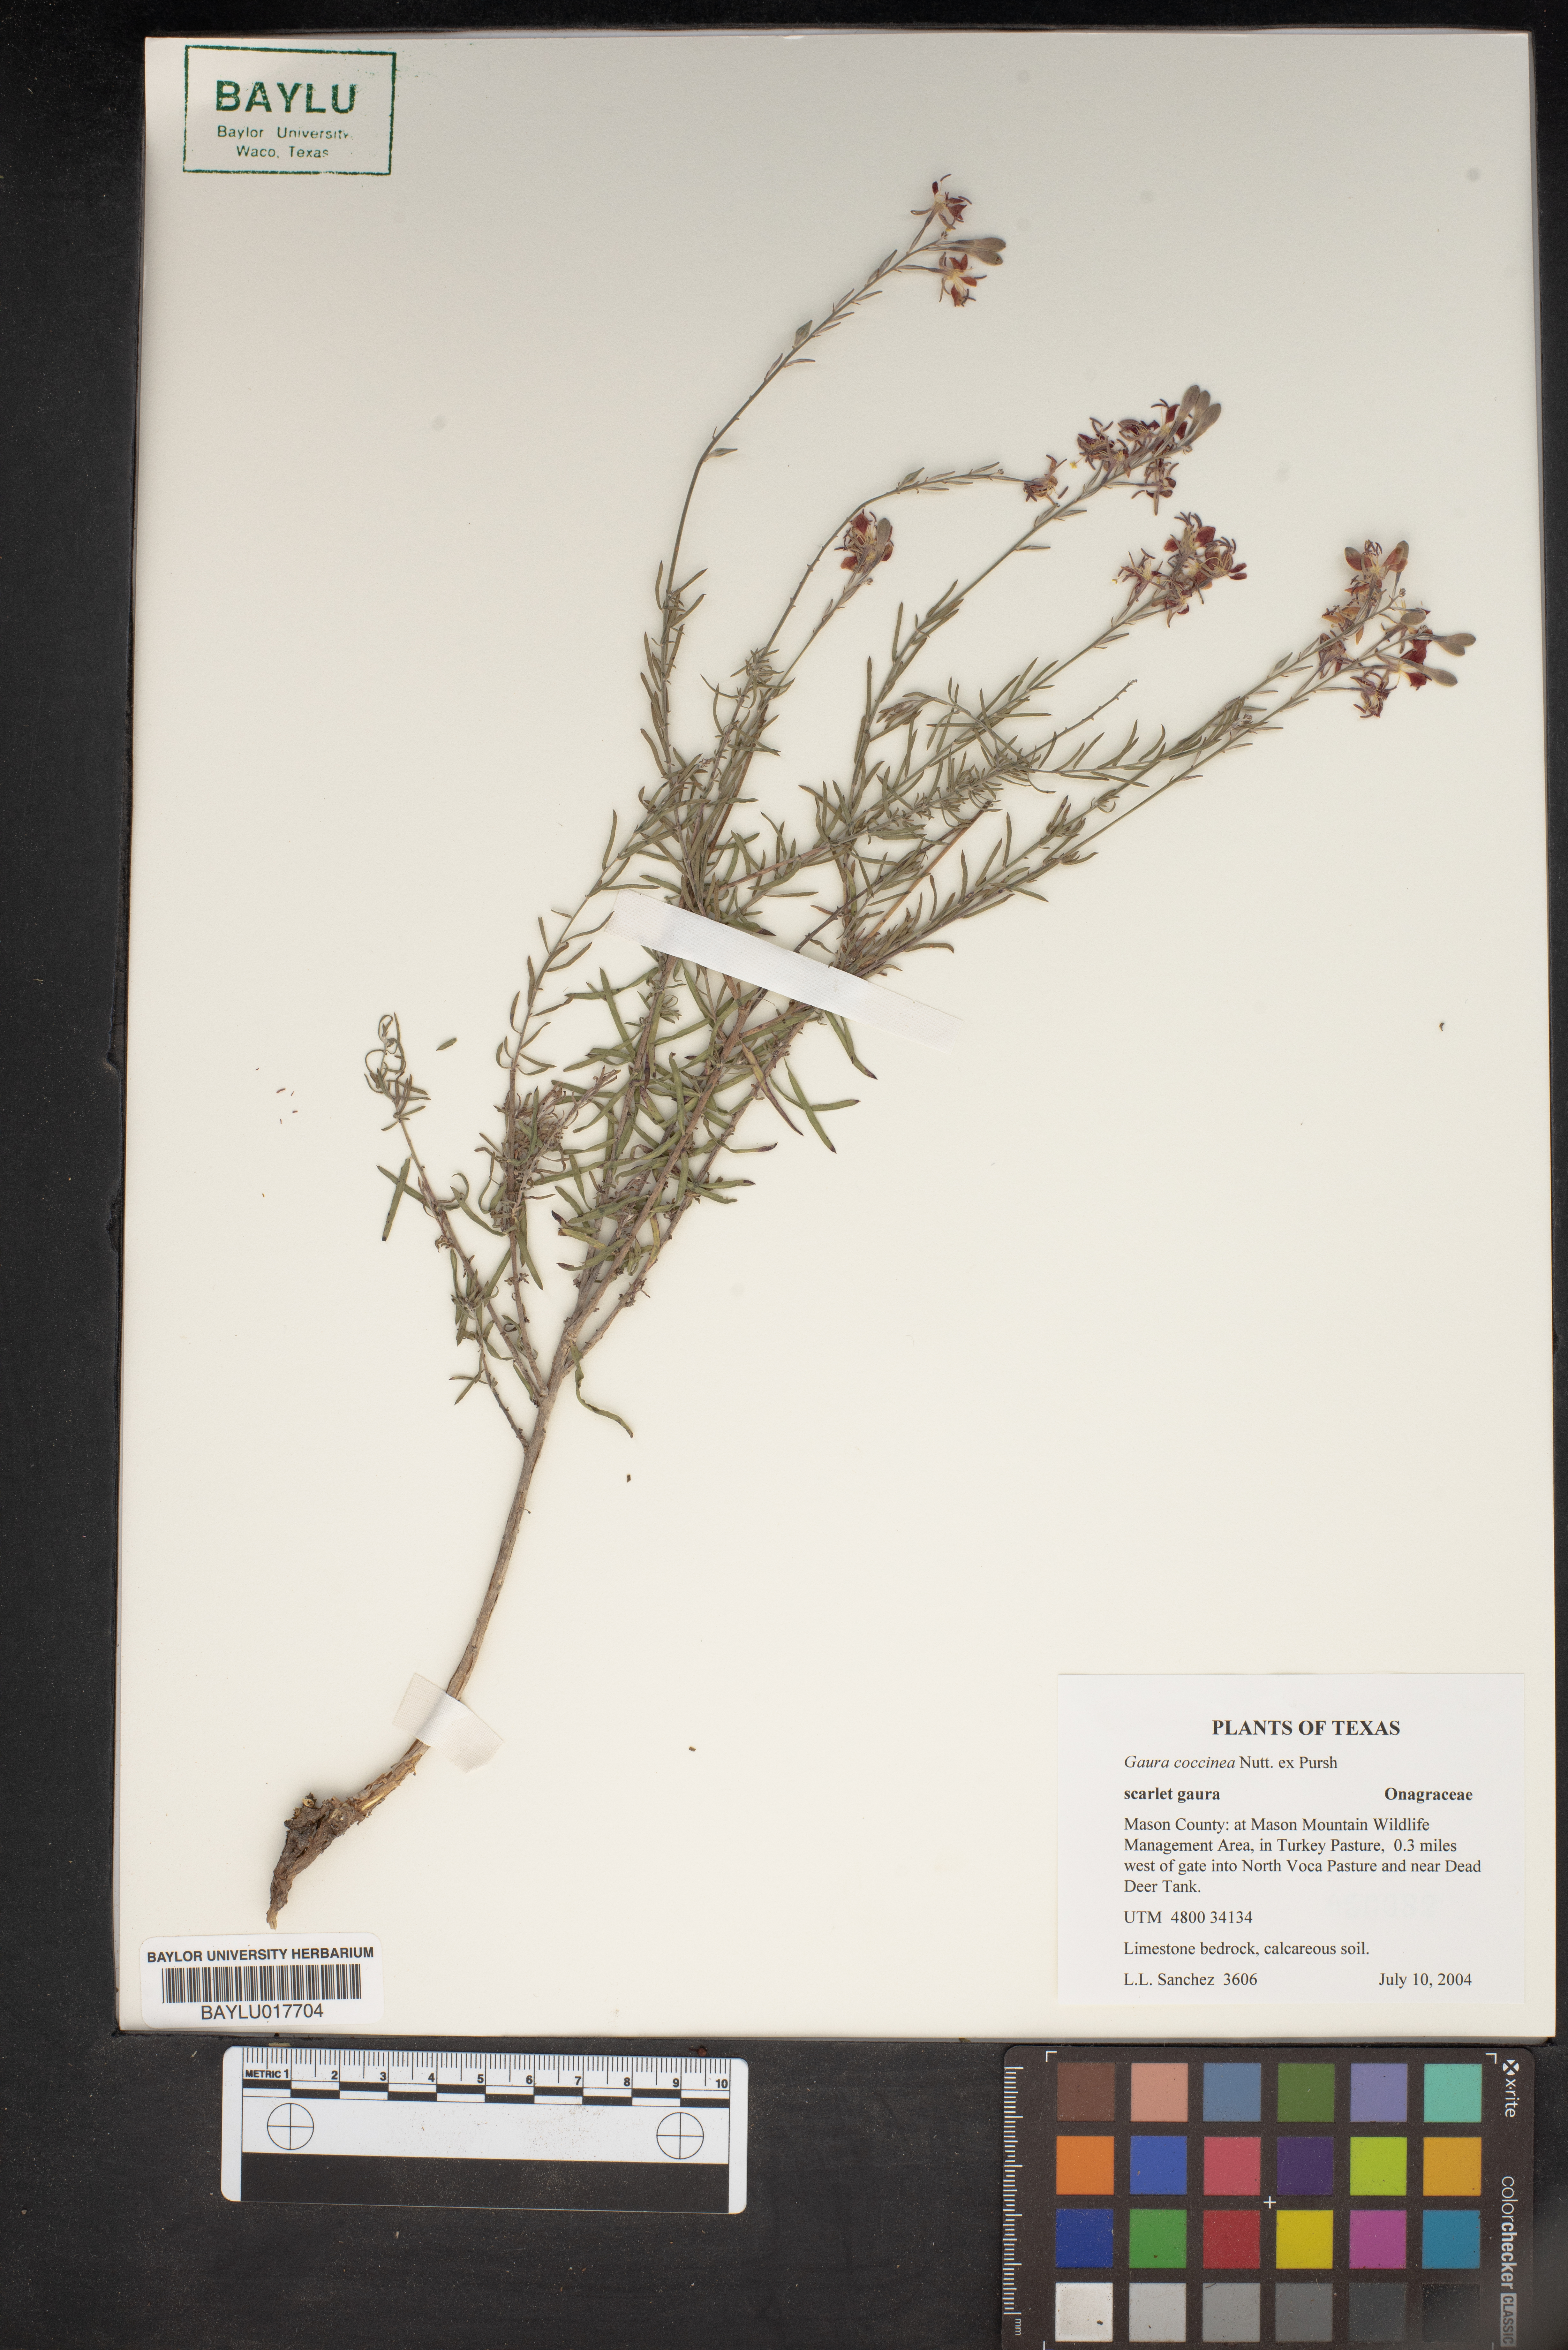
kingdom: Plantae
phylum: Tracheophyta
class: Magnoliopsida
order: Myrtales
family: Onagraceae
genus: Oenothera
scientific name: Oenothera suffrutescens
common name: Scarlet beeblossom
